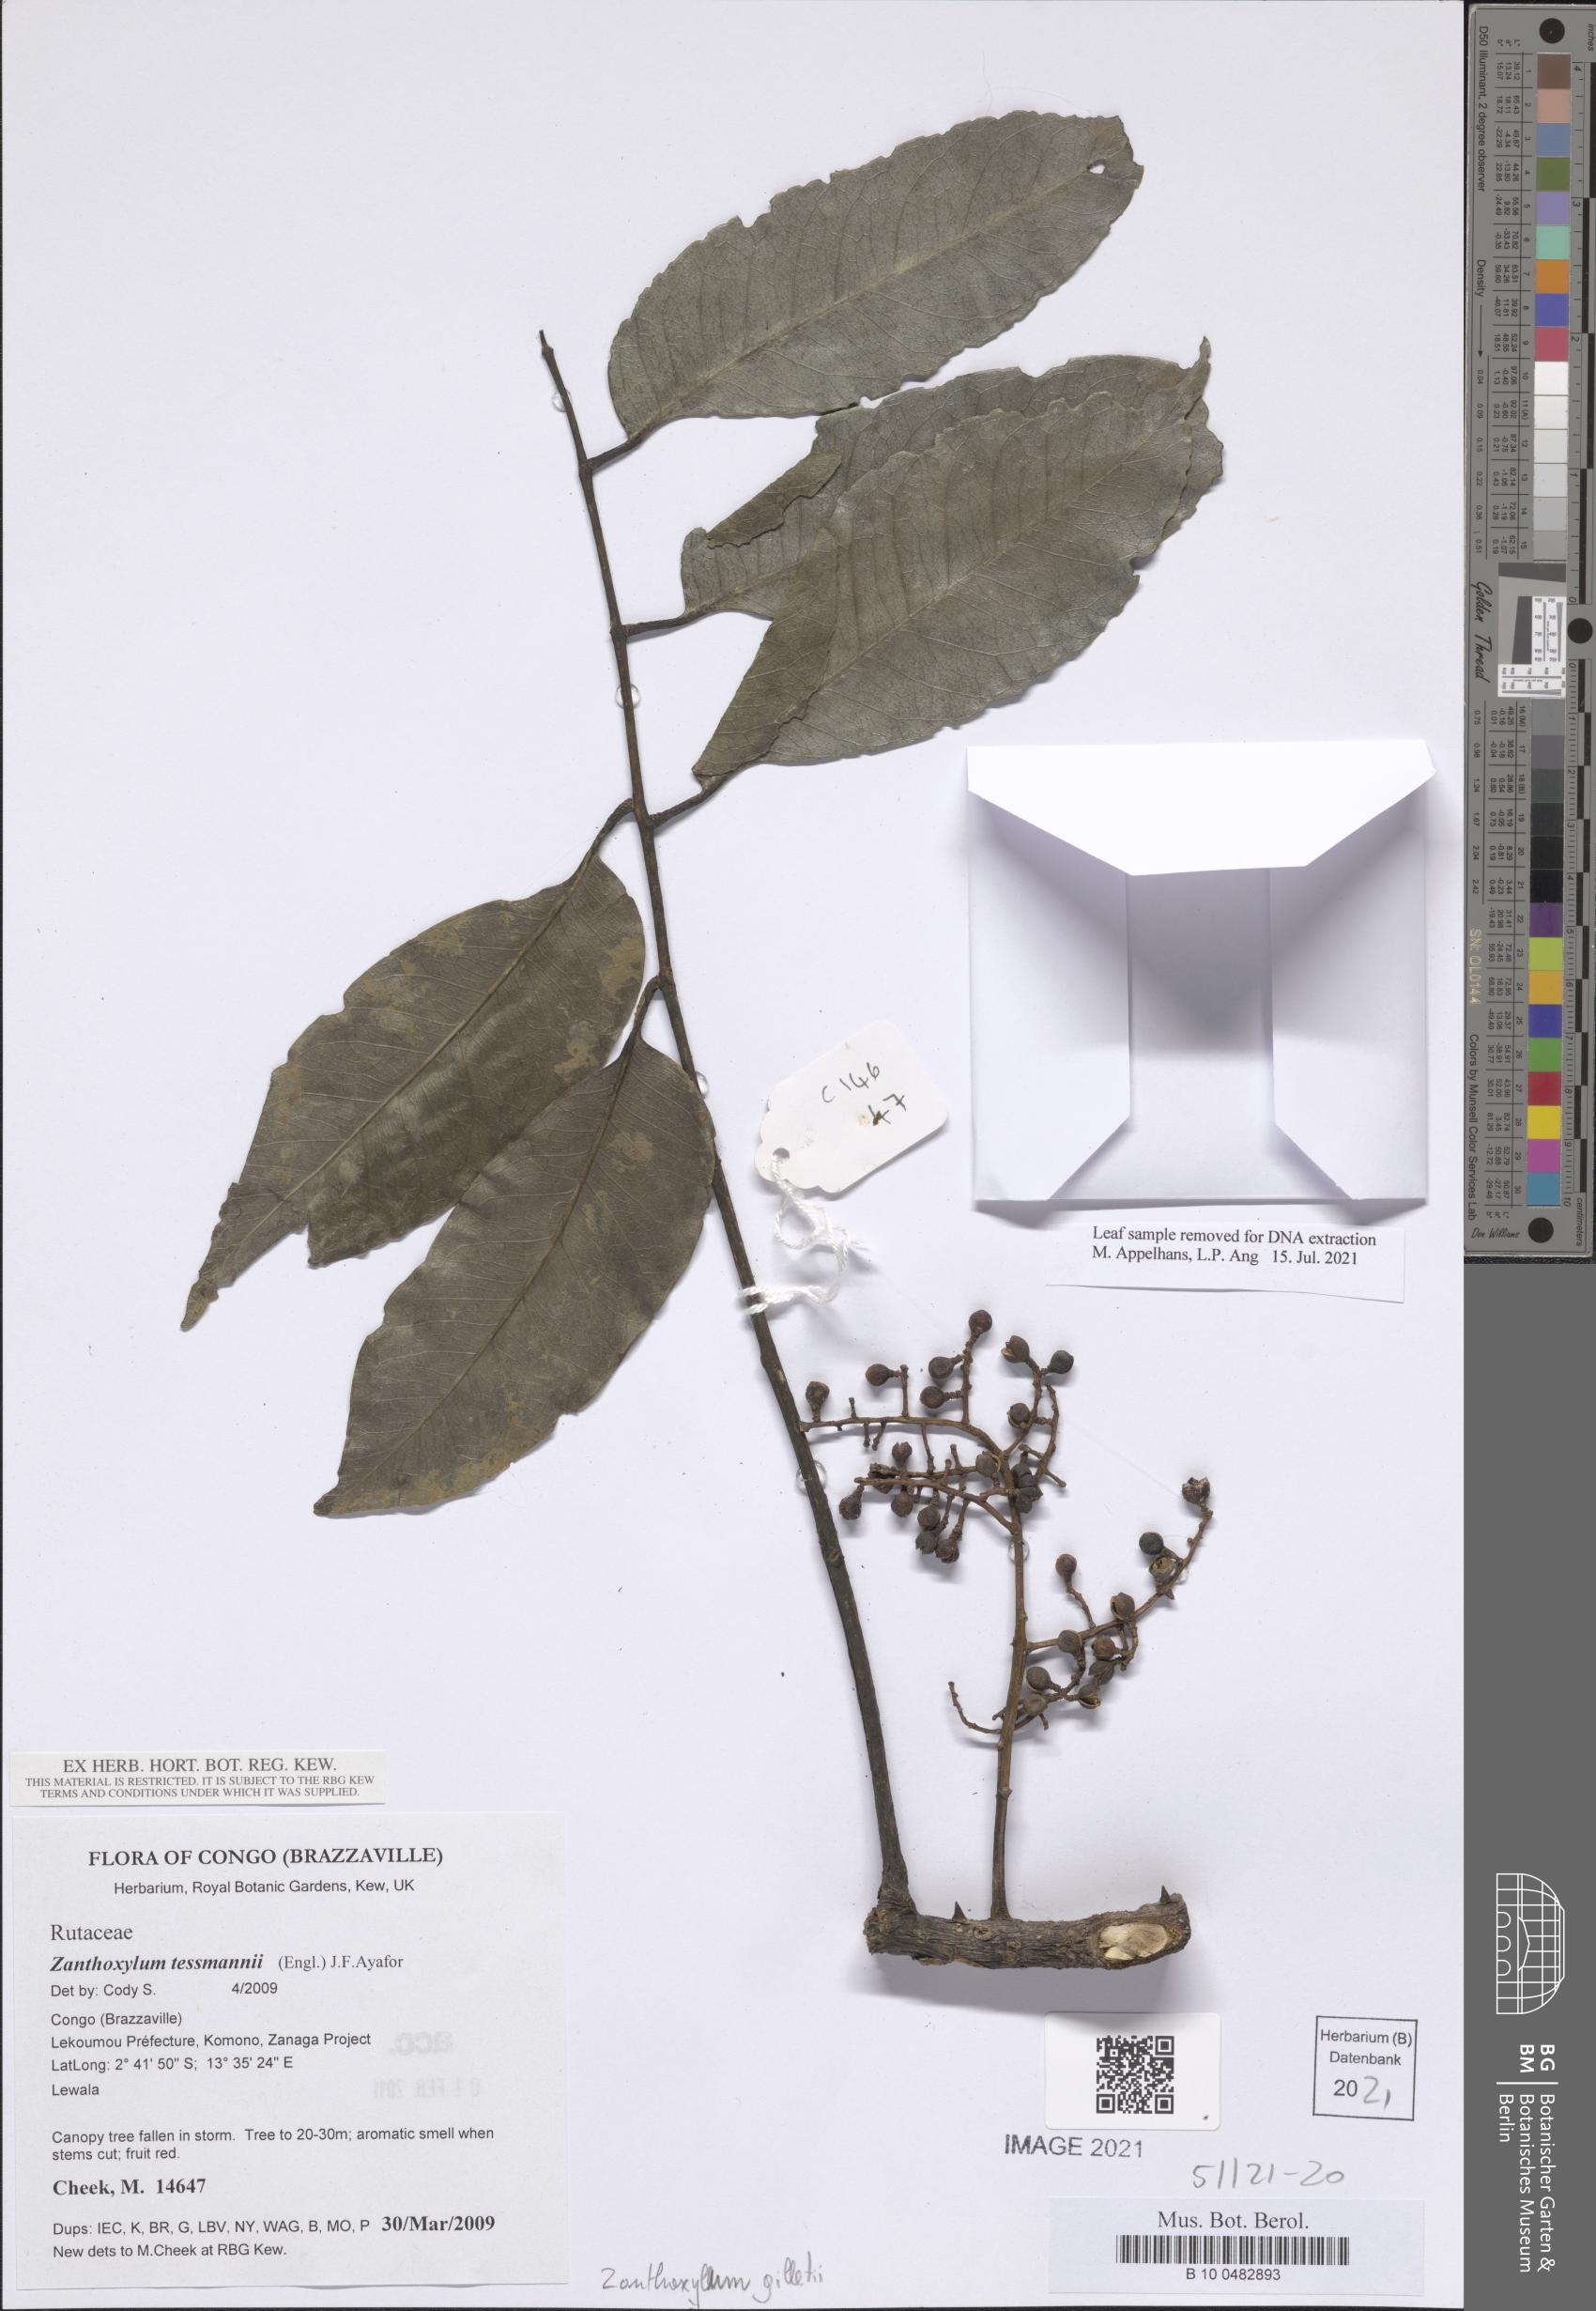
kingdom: Plantae
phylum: Tracheophyta
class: Magnoliopsida
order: Sapindales
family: Rutaceae
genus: Zanthoxylum
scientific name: Zanthoxylum gilletii
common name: African satinwood
